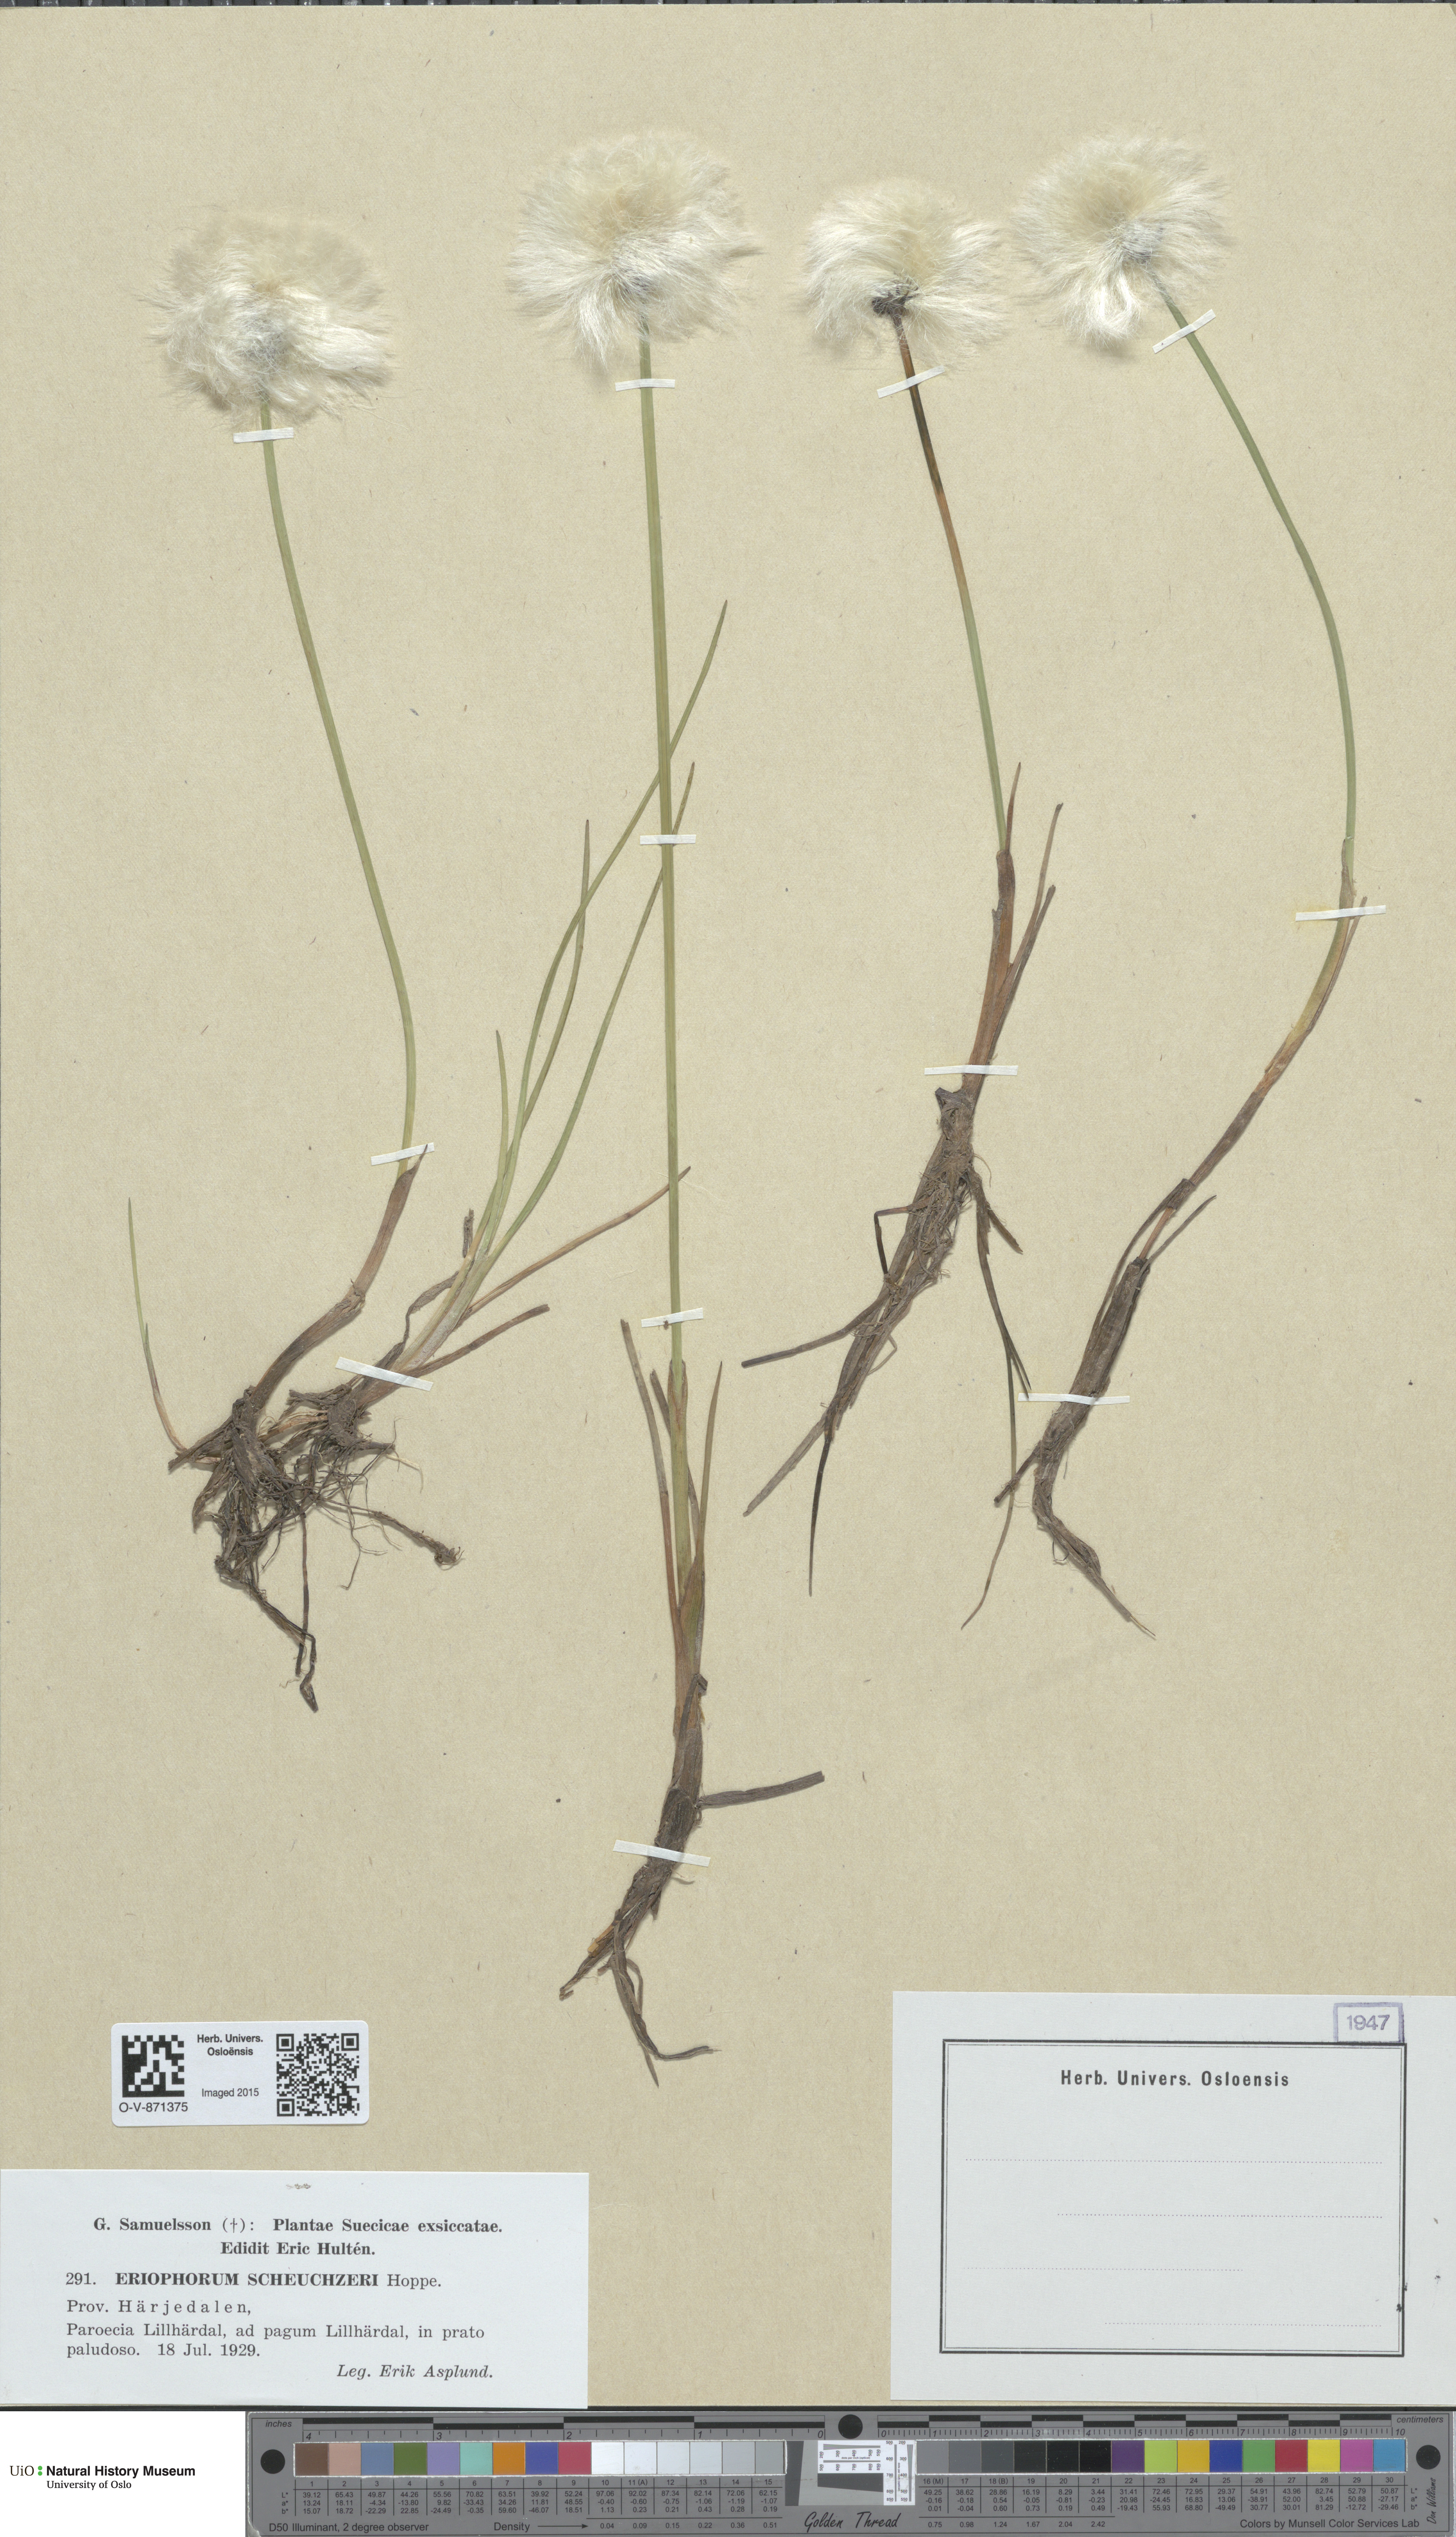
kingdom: Plantae
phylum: Tracheophyta
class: Liliopsida
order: Poales
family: Cyperaceae
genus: Eriophorum
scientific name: Eriophorum scheuchzeri
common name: Scheuchzer's cottongrass
